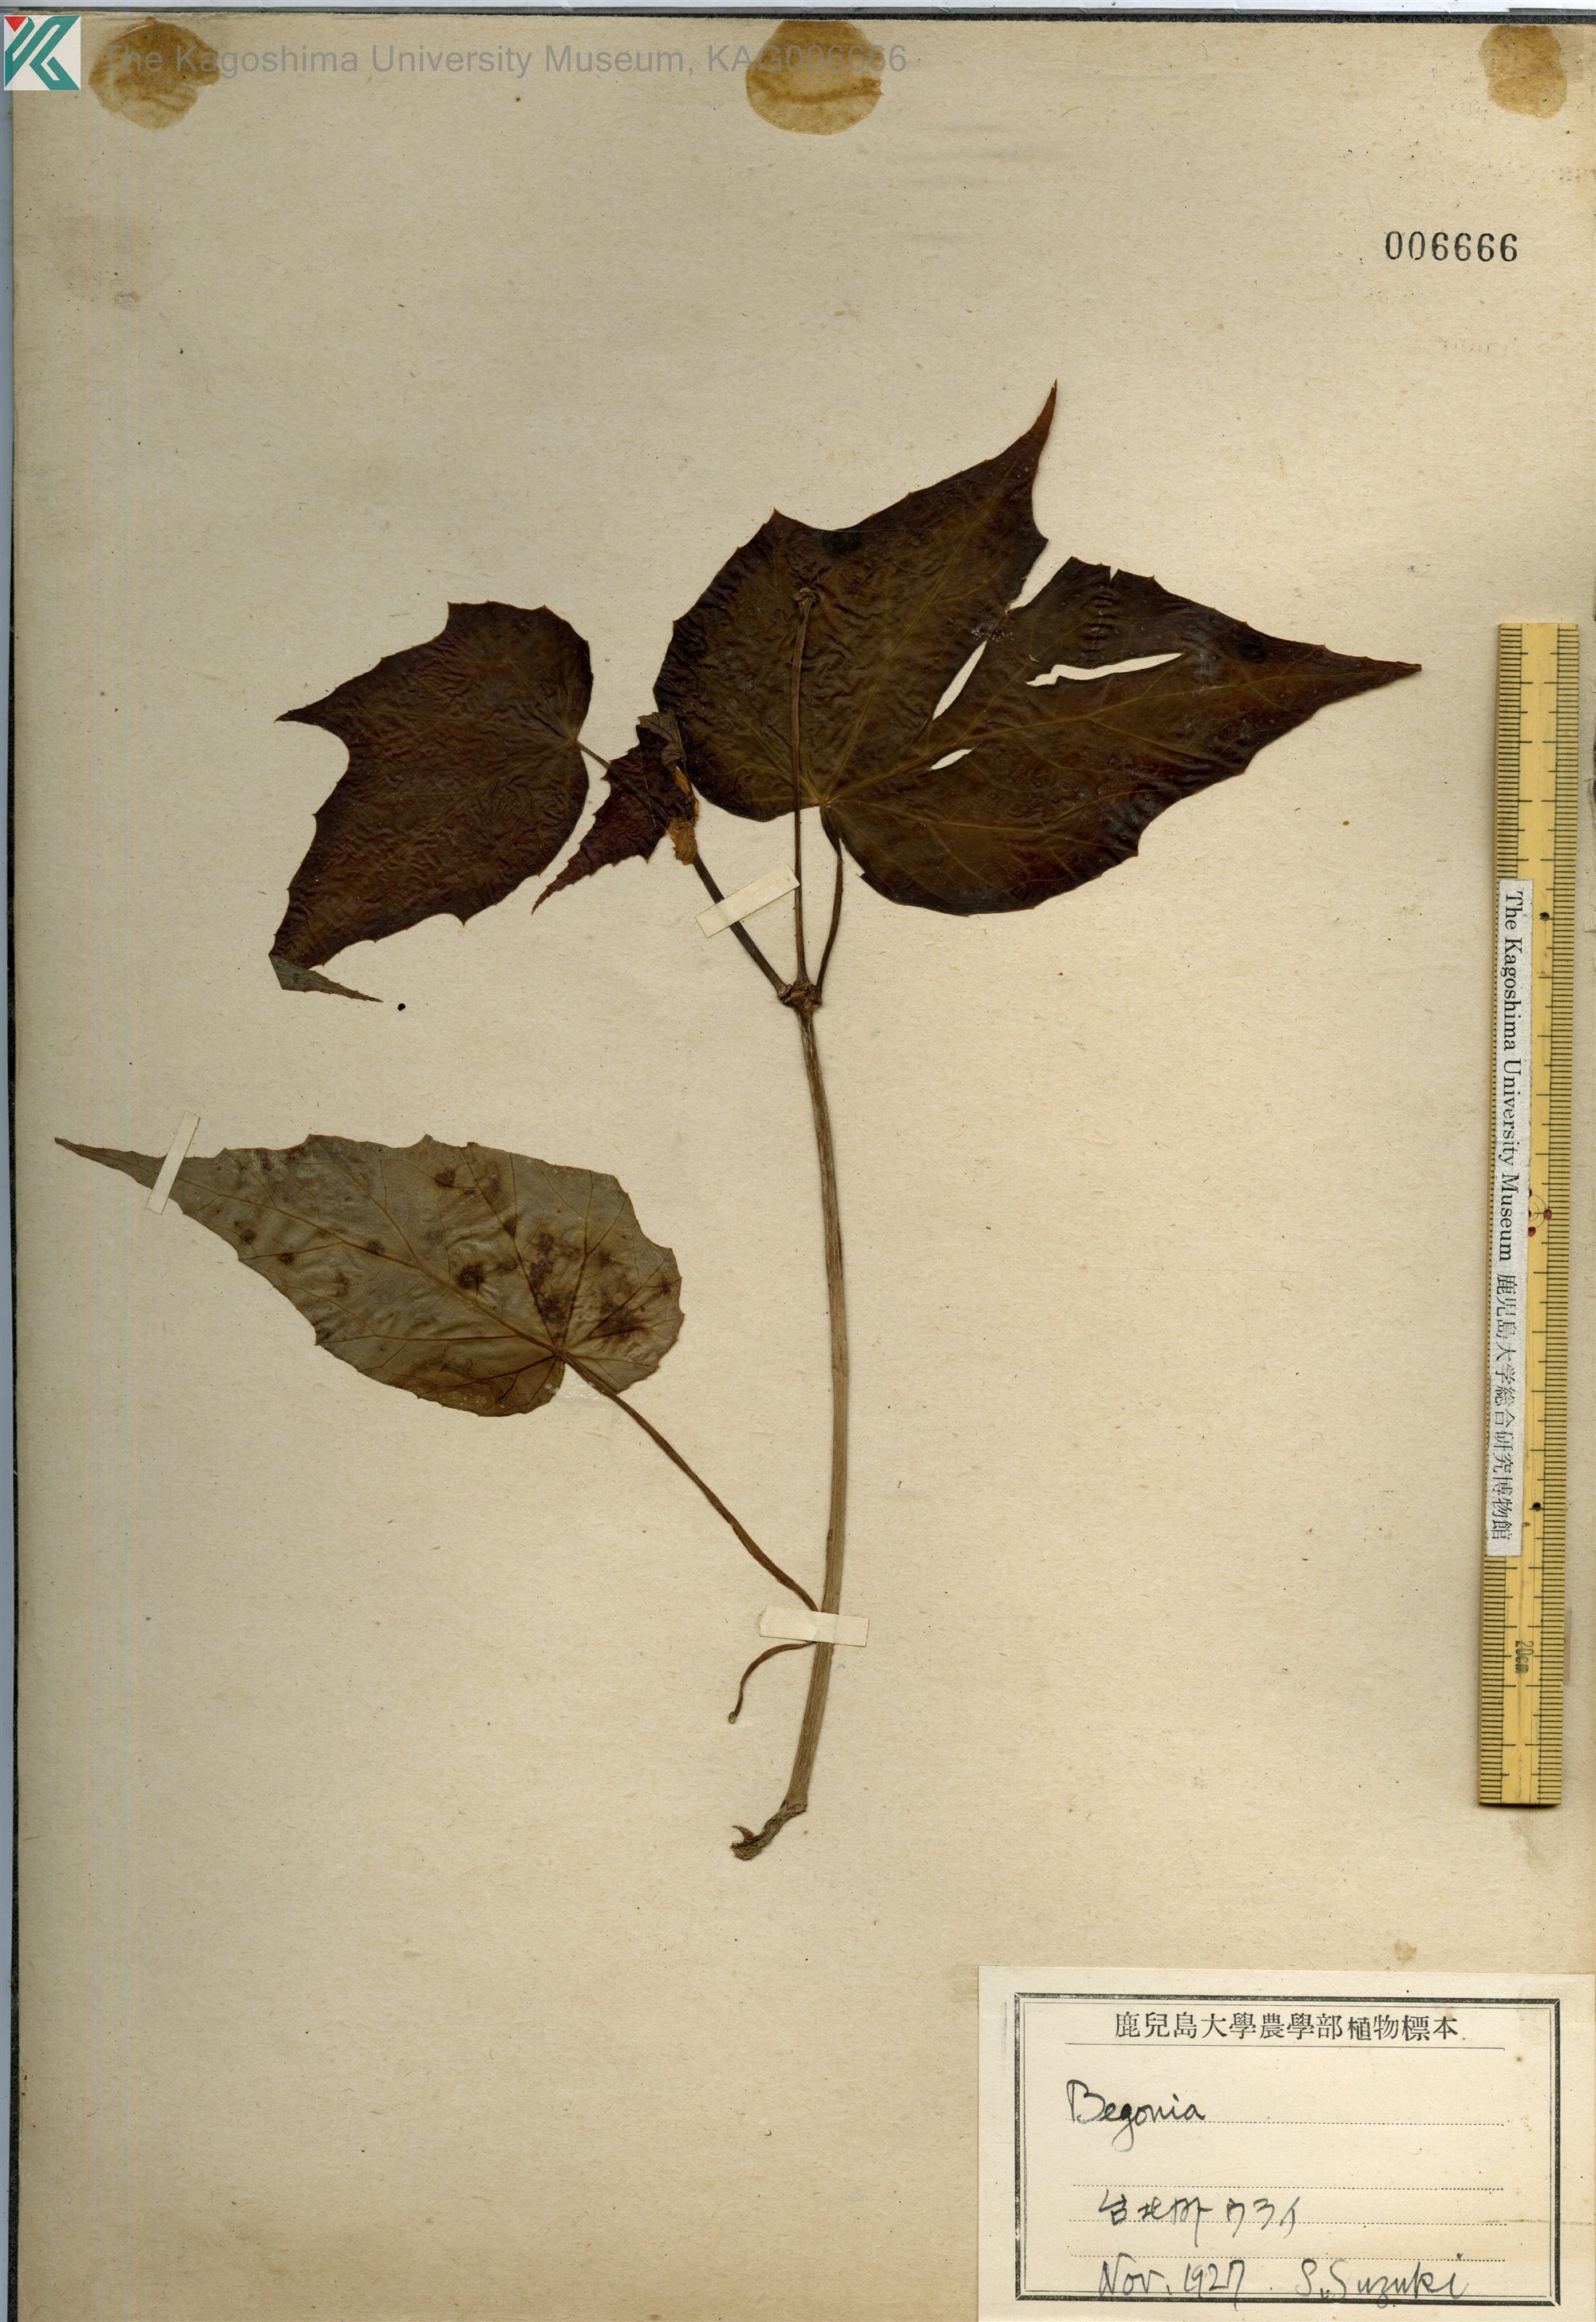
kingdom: Plantae
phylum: Tracheophyta
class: Magnoliopsida
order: Cucurbitales
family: Begoniaceae
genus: Begonia
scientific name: Begonia palmata
